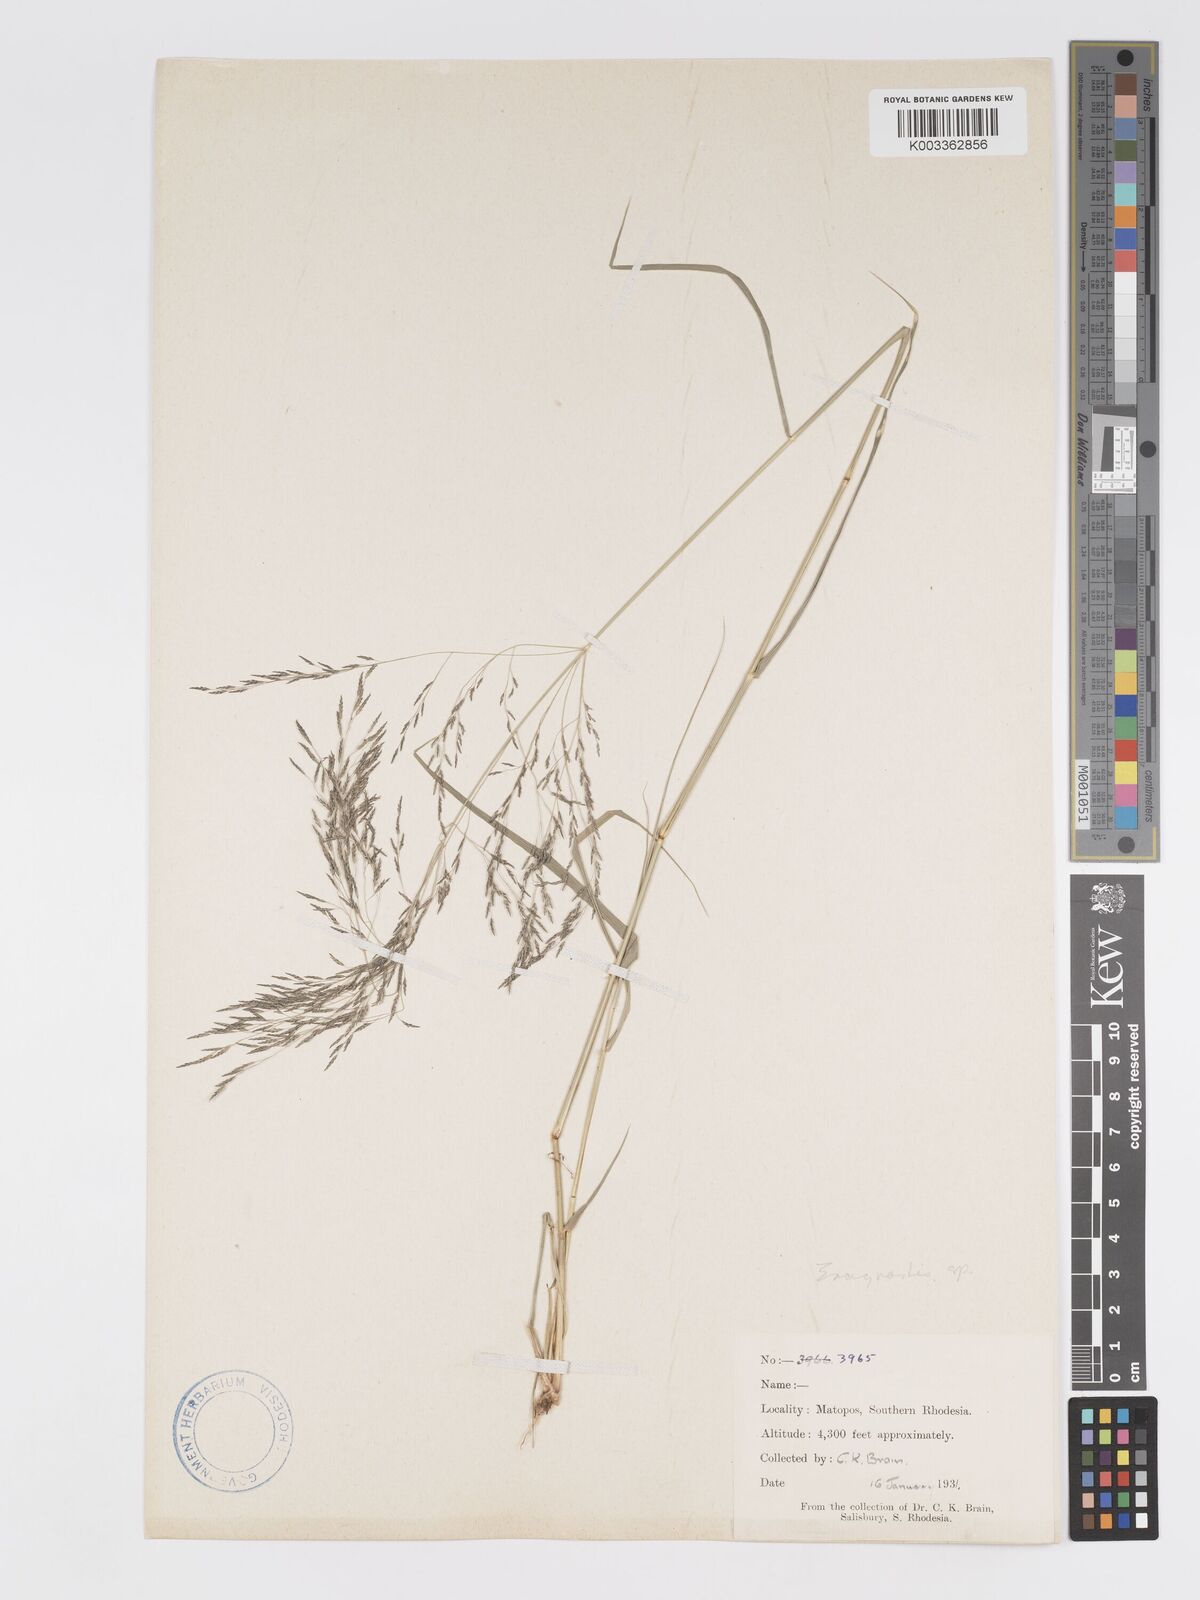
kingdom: Plantae
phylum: Tracheophyta
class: Liliopsida
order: Poales
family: Poaceae
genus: Eragrostis
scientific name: Eragrostis cylindriflora
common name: Cylinderflower lovegrass
